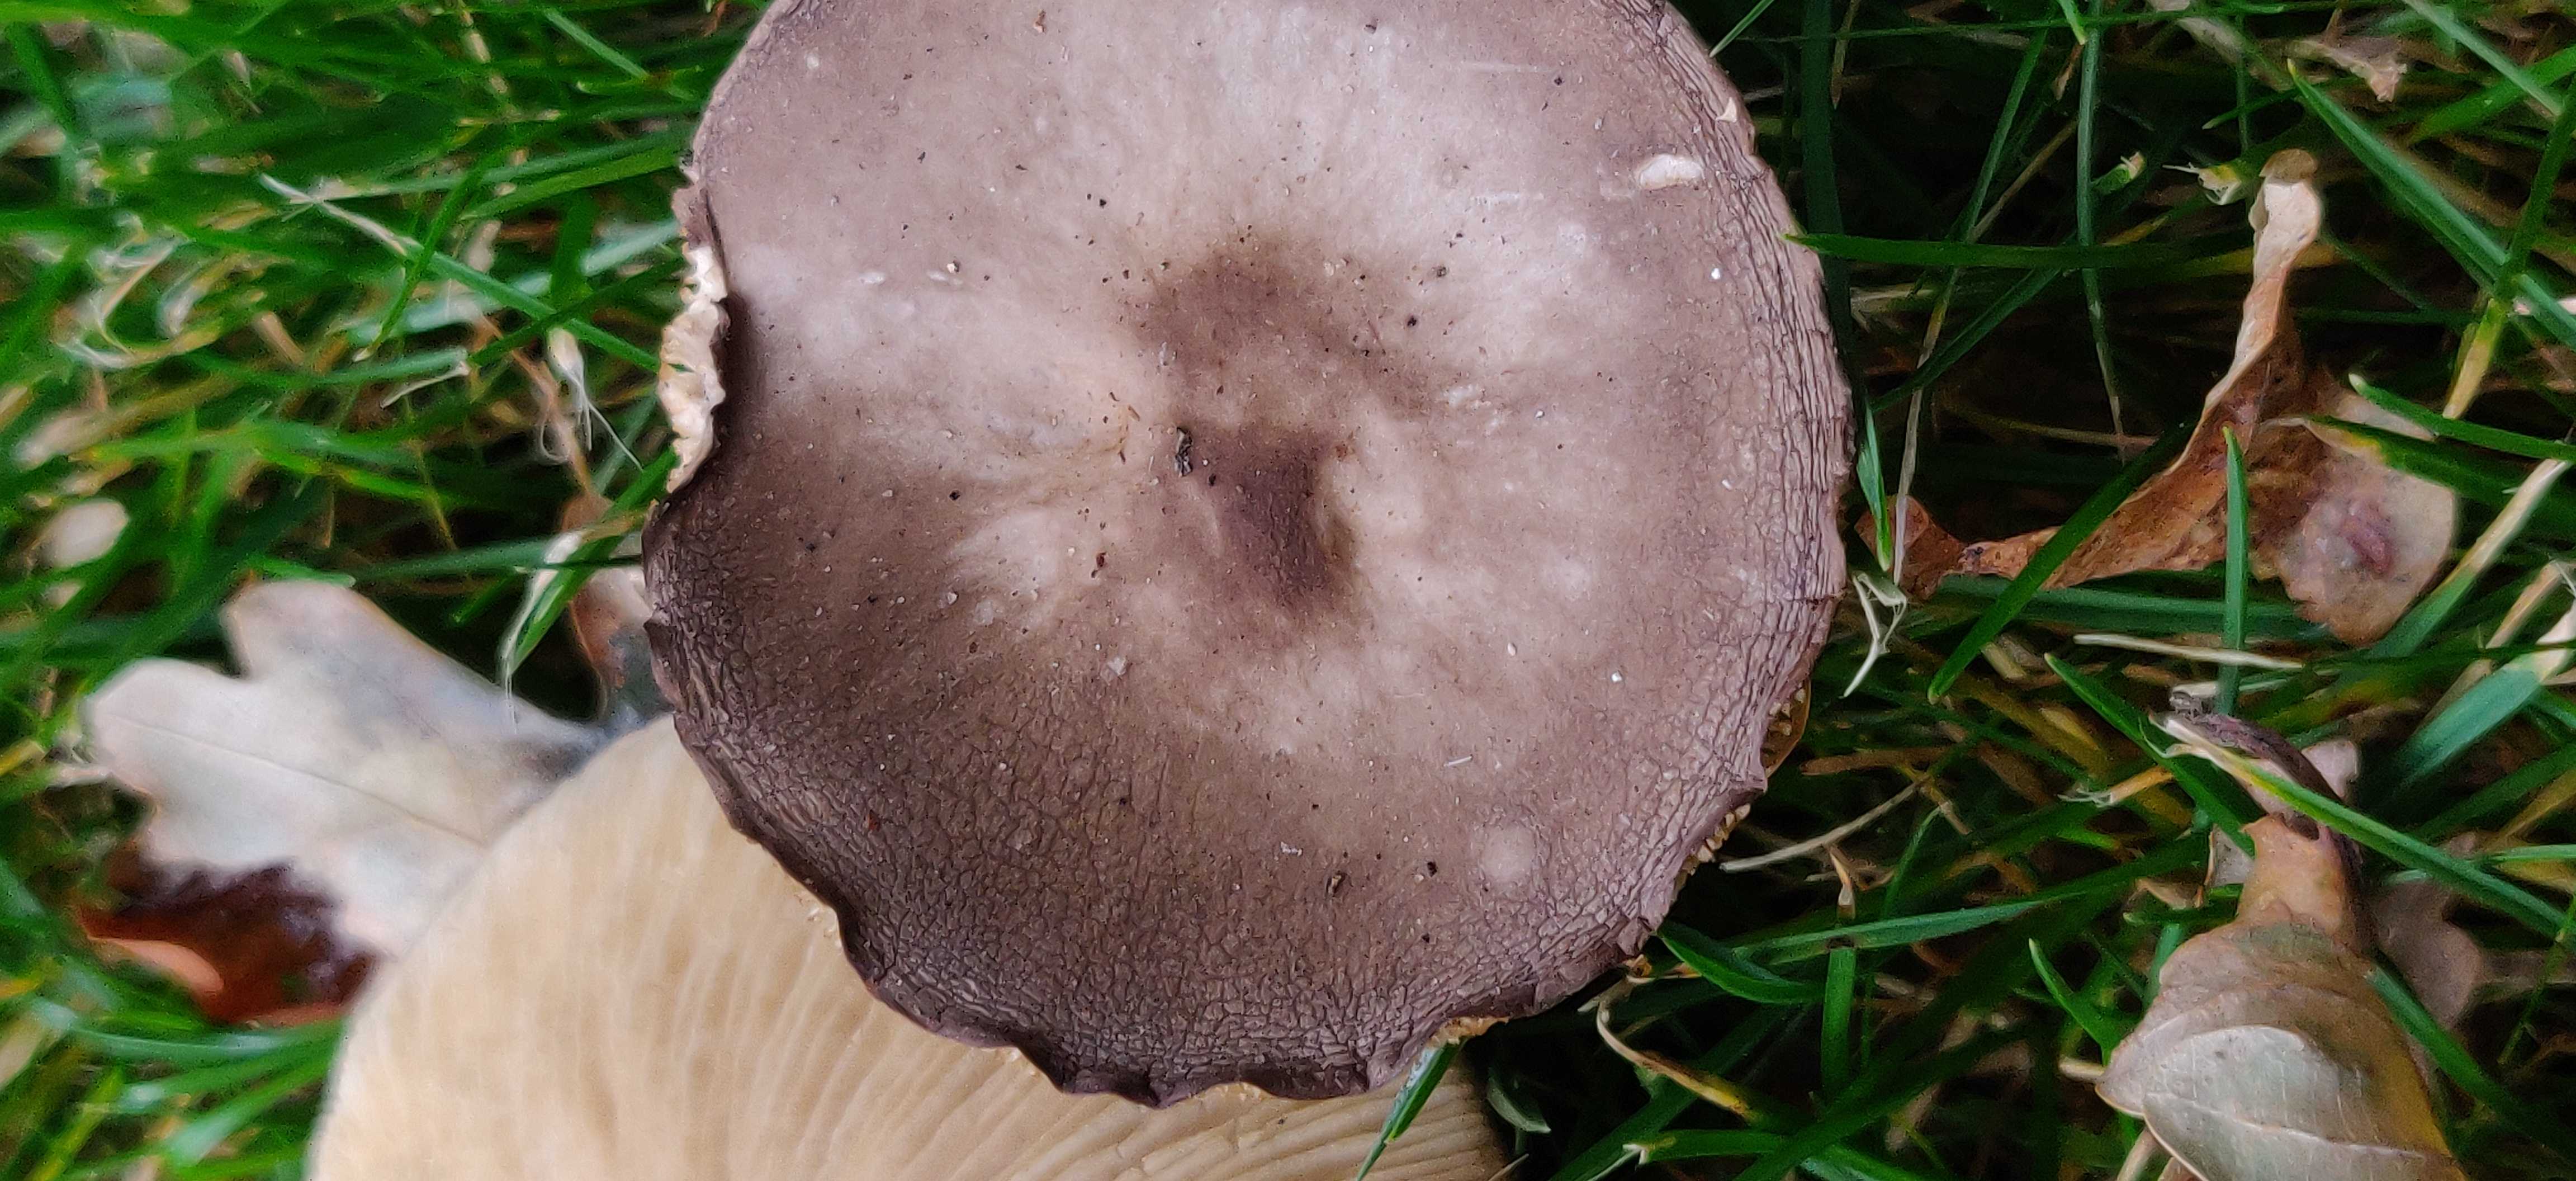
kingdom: Fungi
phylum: Basidiomycota
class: Agaricomycetes
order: Agaricales
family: Tricholomataceae
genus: Melanoleuca
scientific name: Melanoleuca
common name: munkehat
